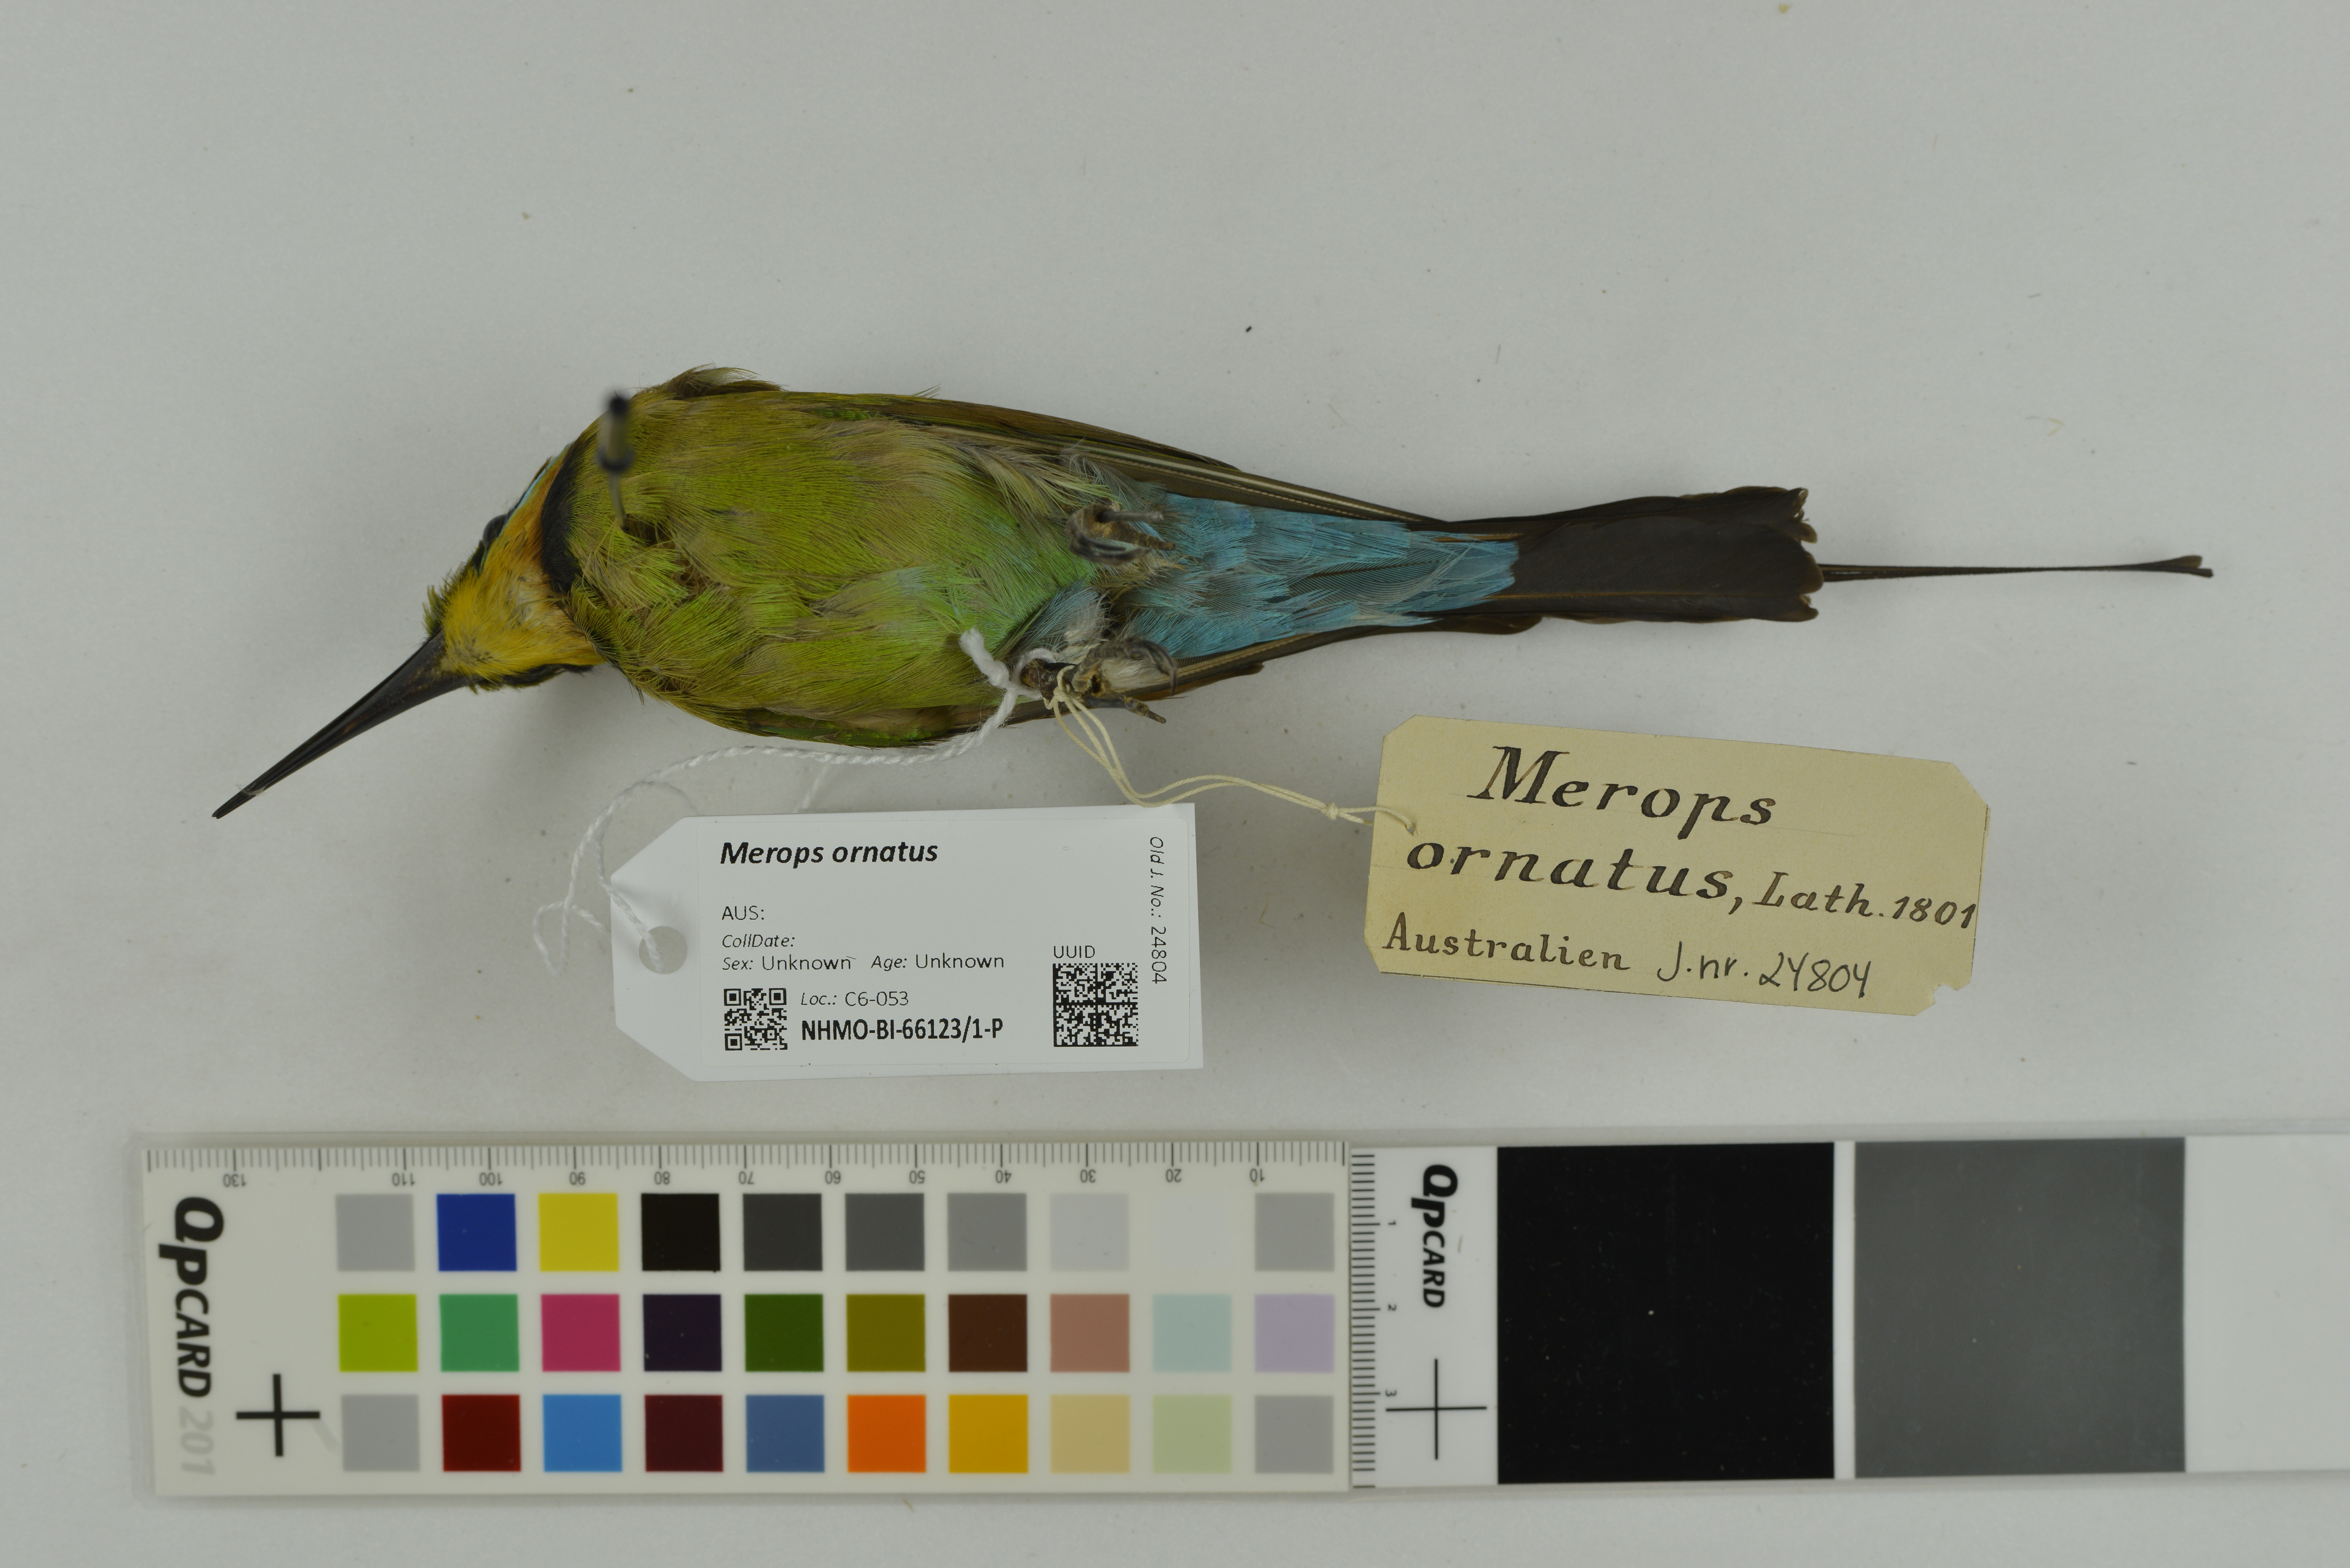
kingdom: Animalia
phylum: Chordata
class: Aves
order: Coraciiformes
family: Meropidae
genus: Merops
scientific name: Merops ornatus
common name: Rainbow bee-eater
